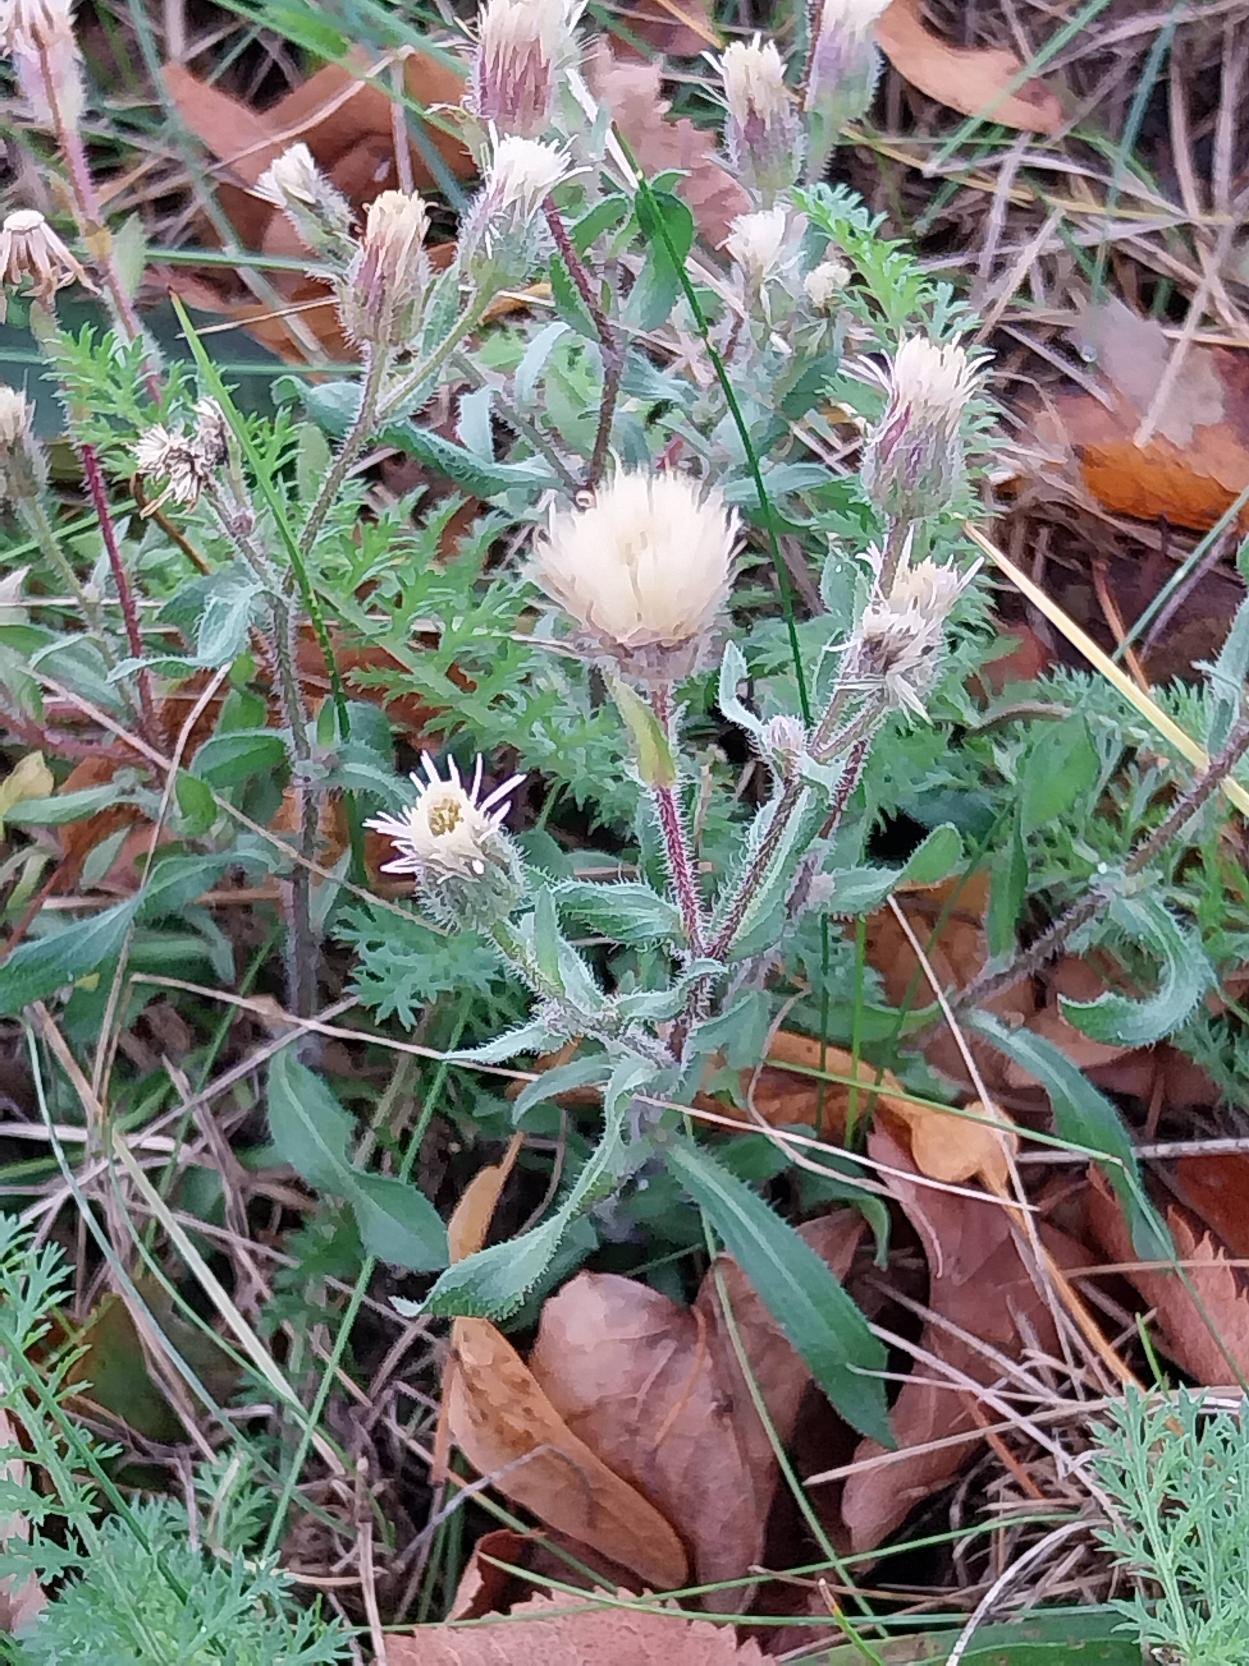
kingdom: Plantae
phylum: Tracheophyta
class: Magnoliopsida
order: Asterales
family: Asteraceae
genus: Erigeron
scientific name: Erigeron muralis
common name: Vreden bakkestjerne
